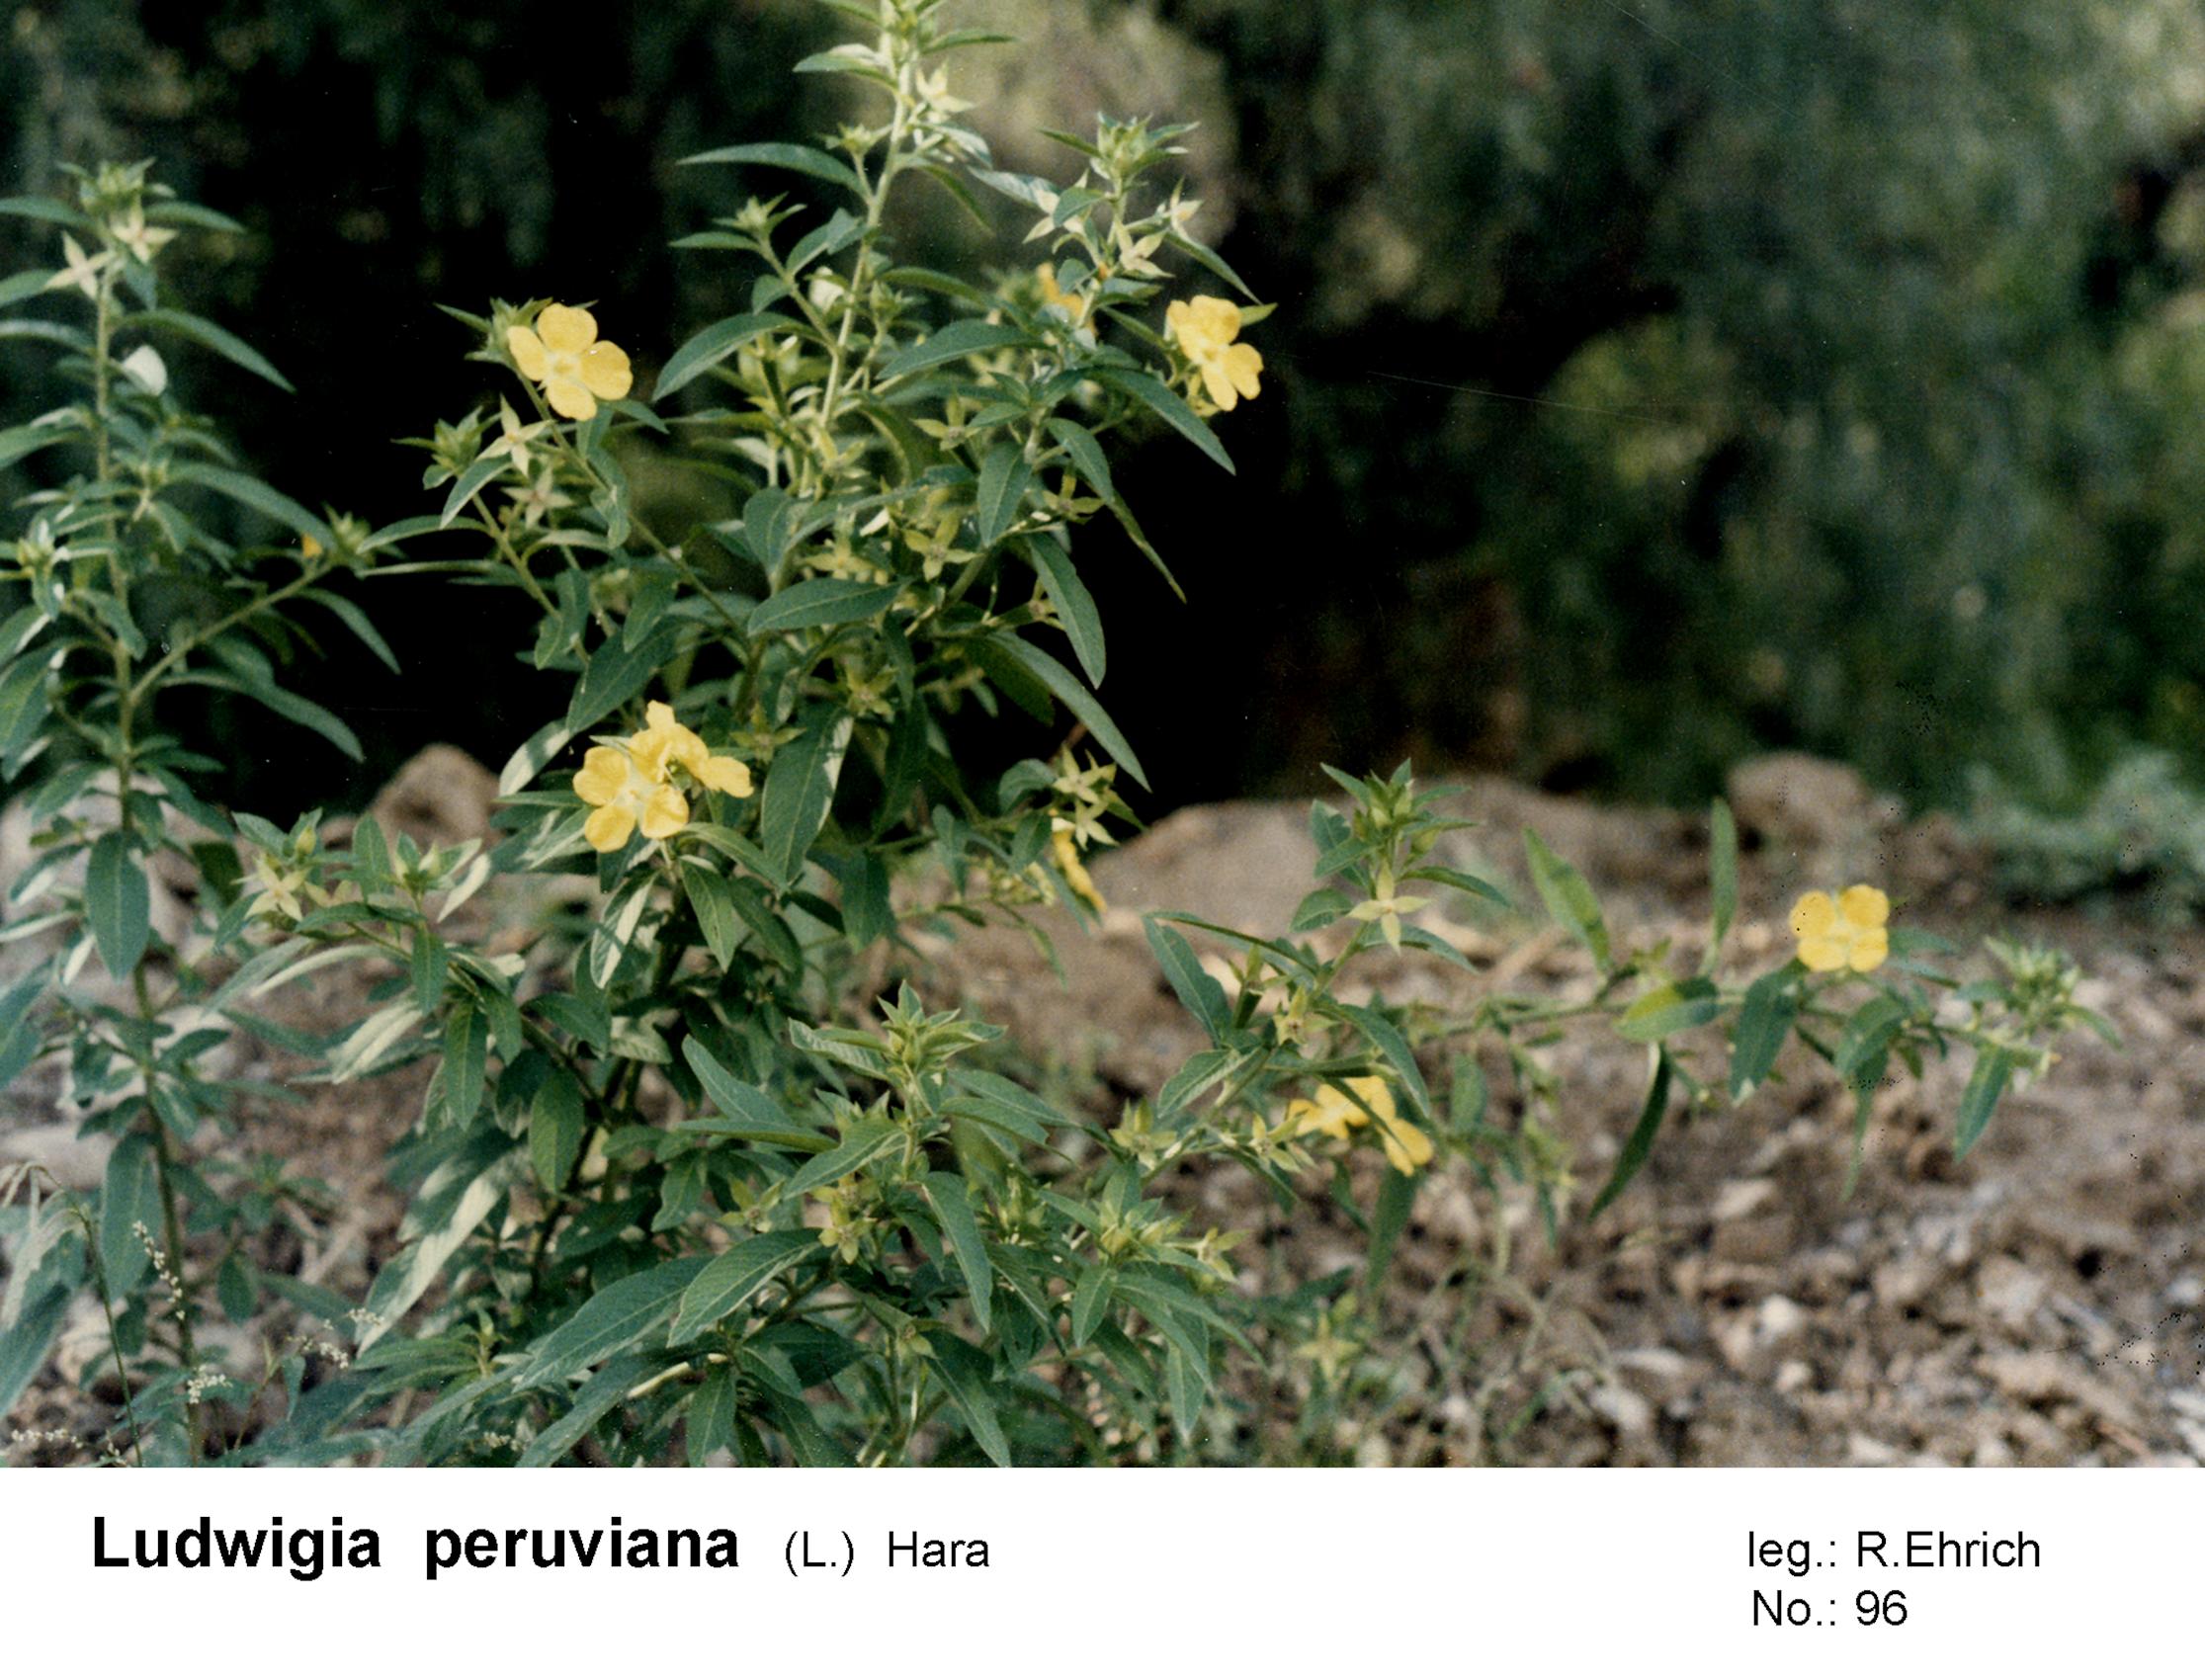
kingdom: Plantae
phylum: Tracheophyta
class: Magnoliopsida
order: Myrtales
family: Onagraceae
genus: Ludwigia
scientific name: Ludwigia peruviana
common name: Peruvian primrose-willow
